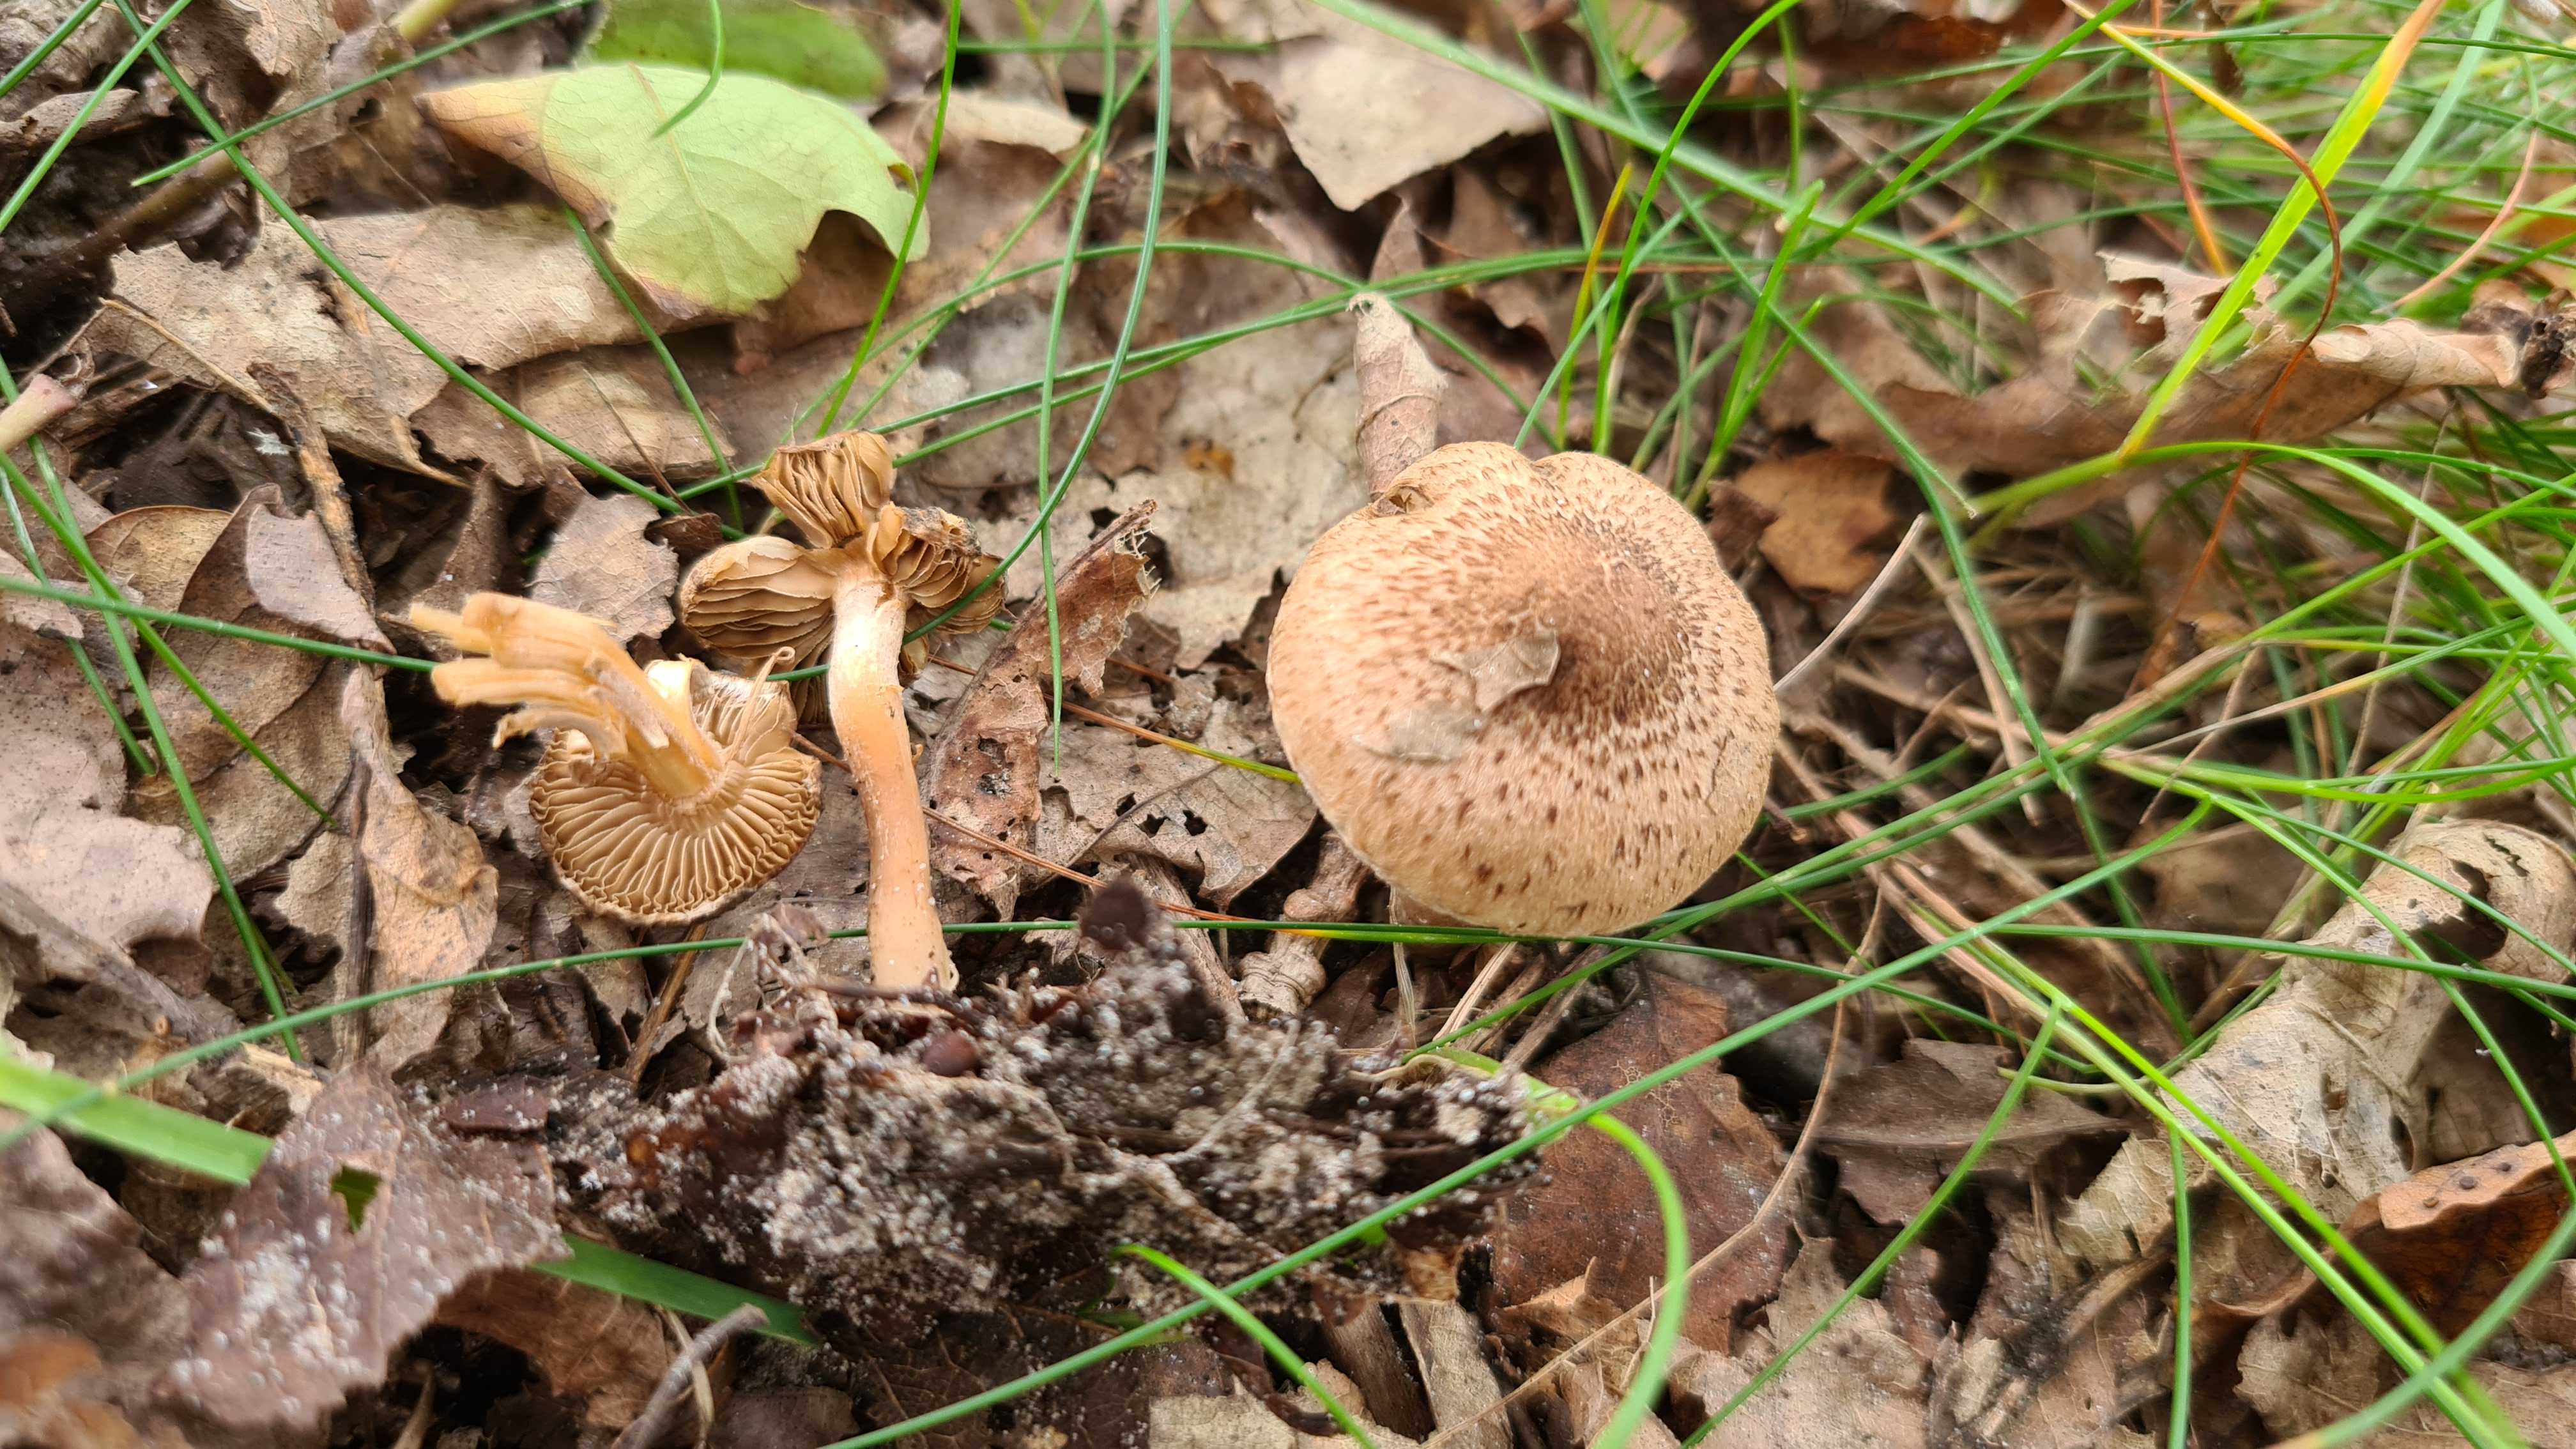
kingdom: Fungi
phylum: Basidiomycota
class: Agaricomycetes
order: Agaricales
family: Inocybaceae
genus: Inocybe
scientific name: Inocybe
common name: trævlhat
